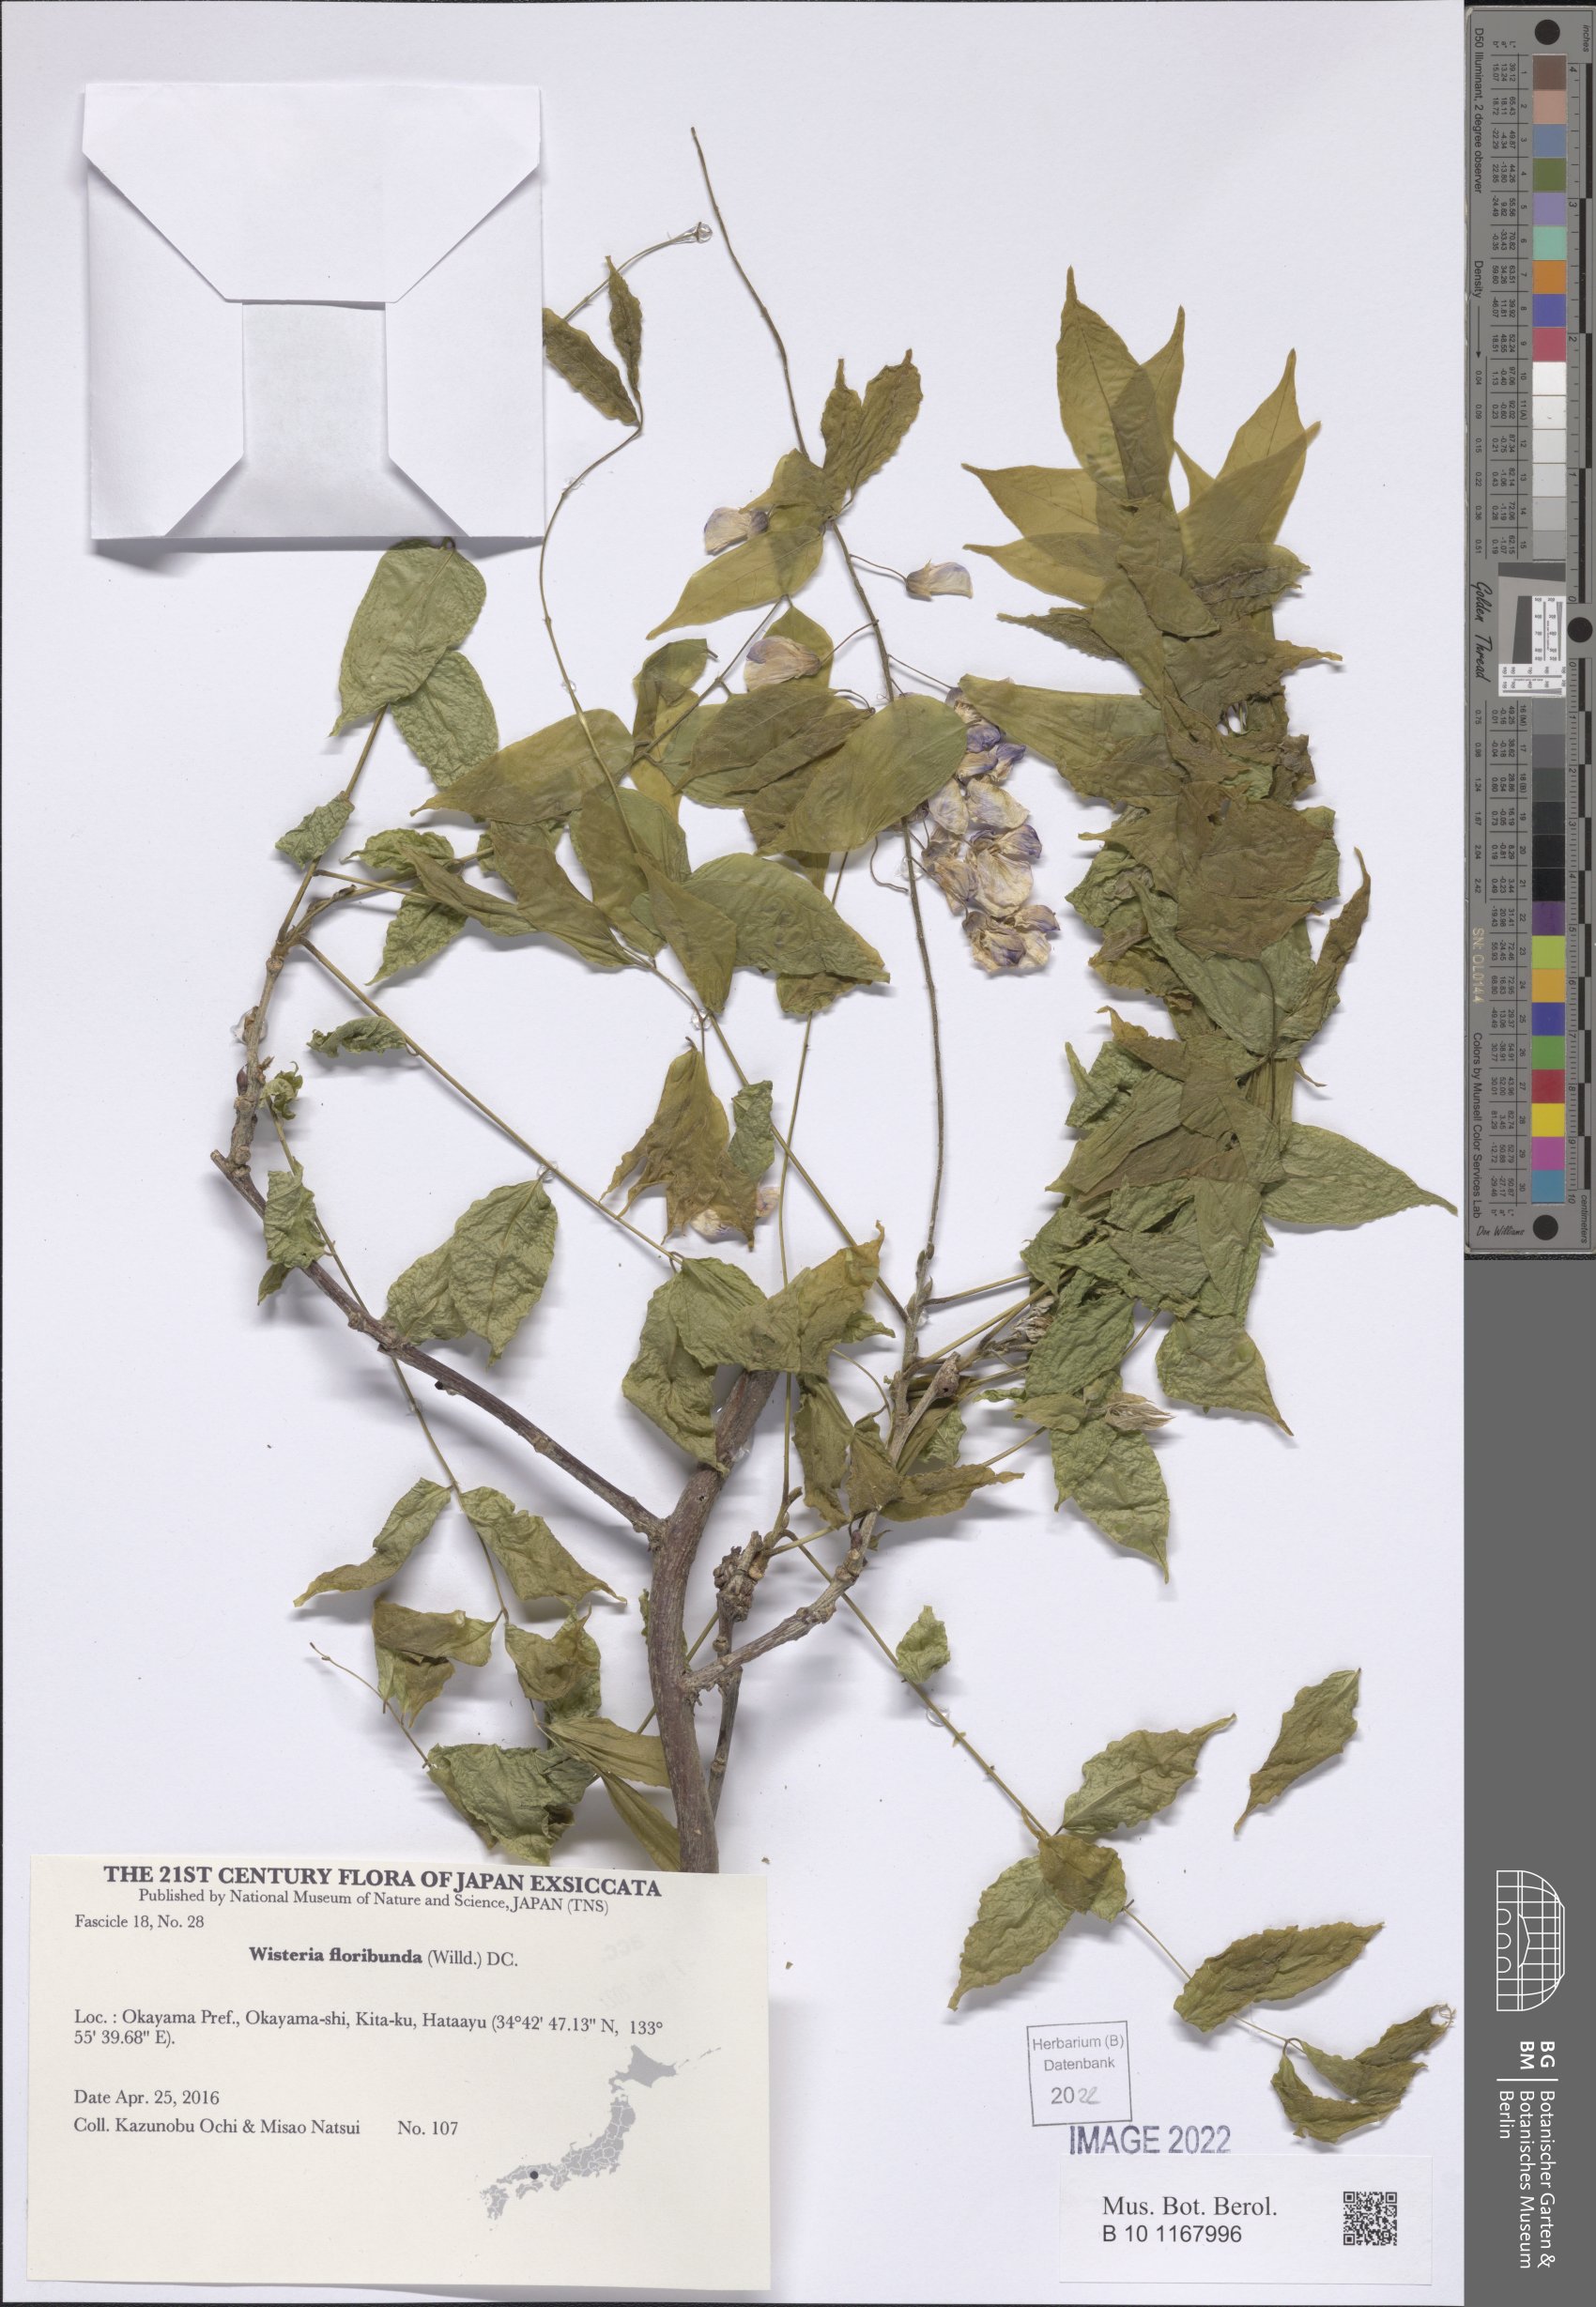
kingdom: Plantae
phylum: Tracheophyta
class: Magnoliopsida
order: Fabales
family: Fabaceae
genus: Wisteria
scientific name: Wisteria floribunda
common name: Japanese wisteria
